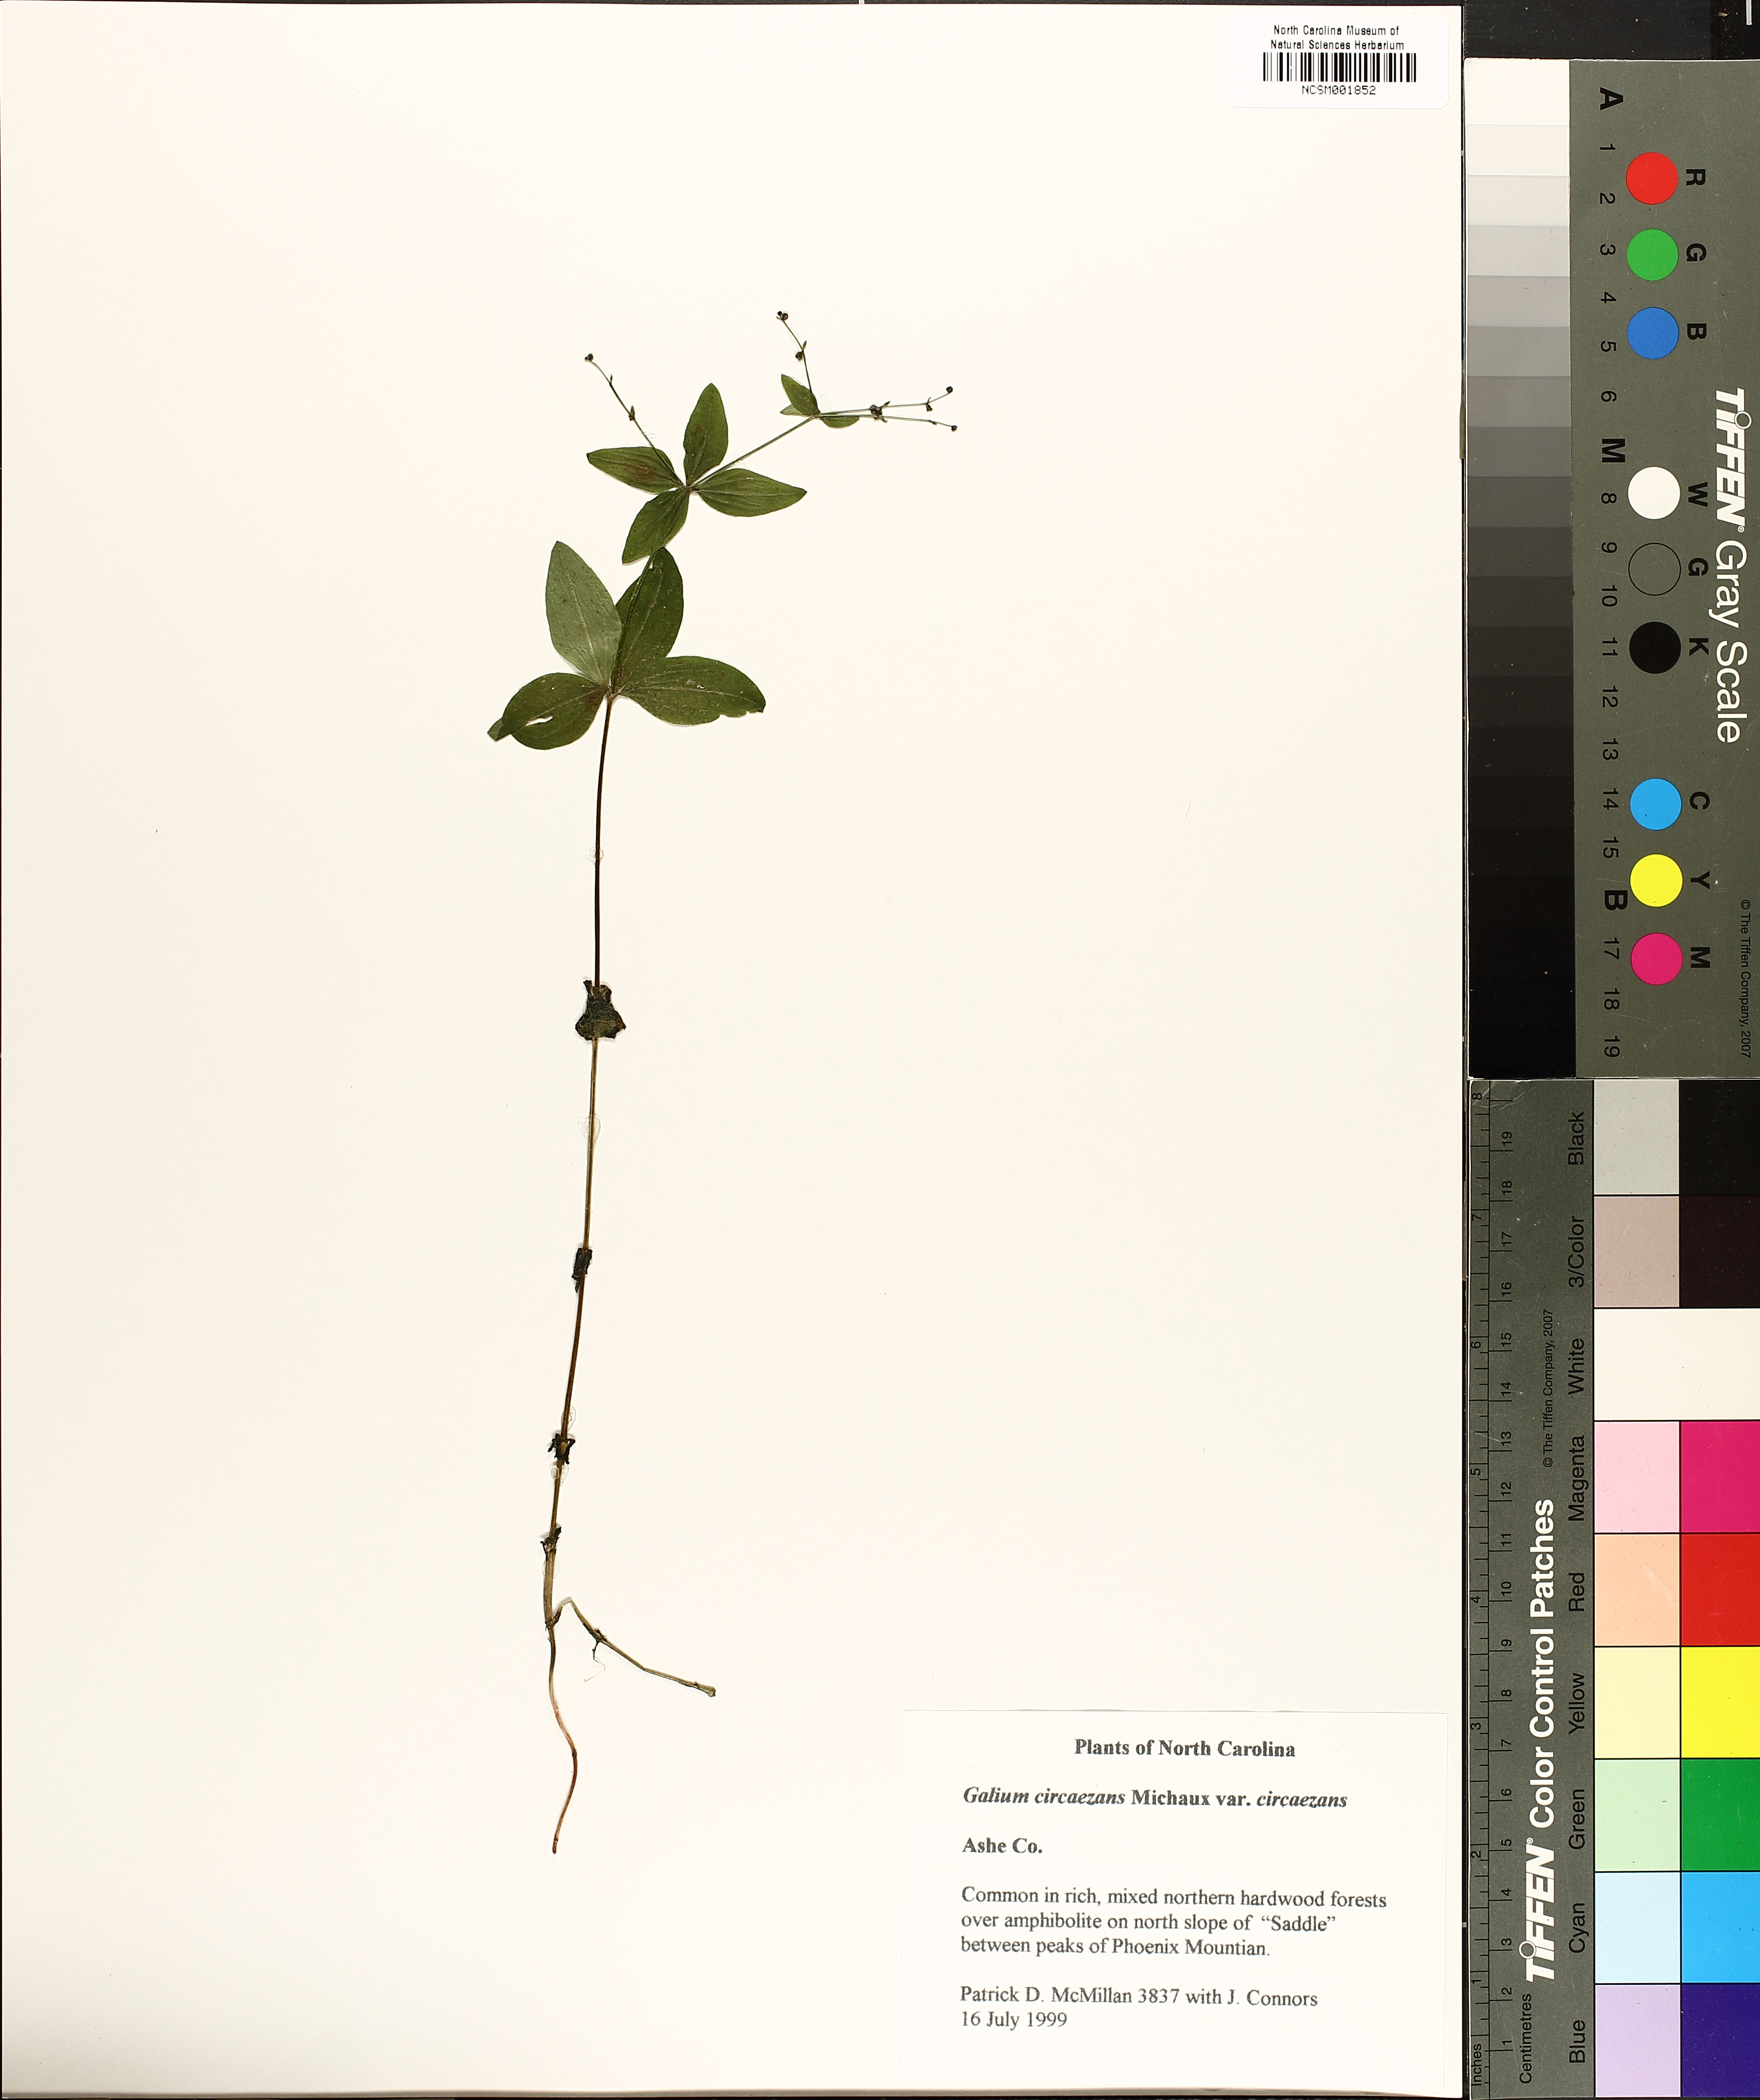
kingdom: Plantae
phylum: Tracheophyta
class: Magnoliopsida
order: Gentianales
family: Rubiaceae
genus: Galium
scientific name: Galium circaezans
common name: Forest bedstraw
